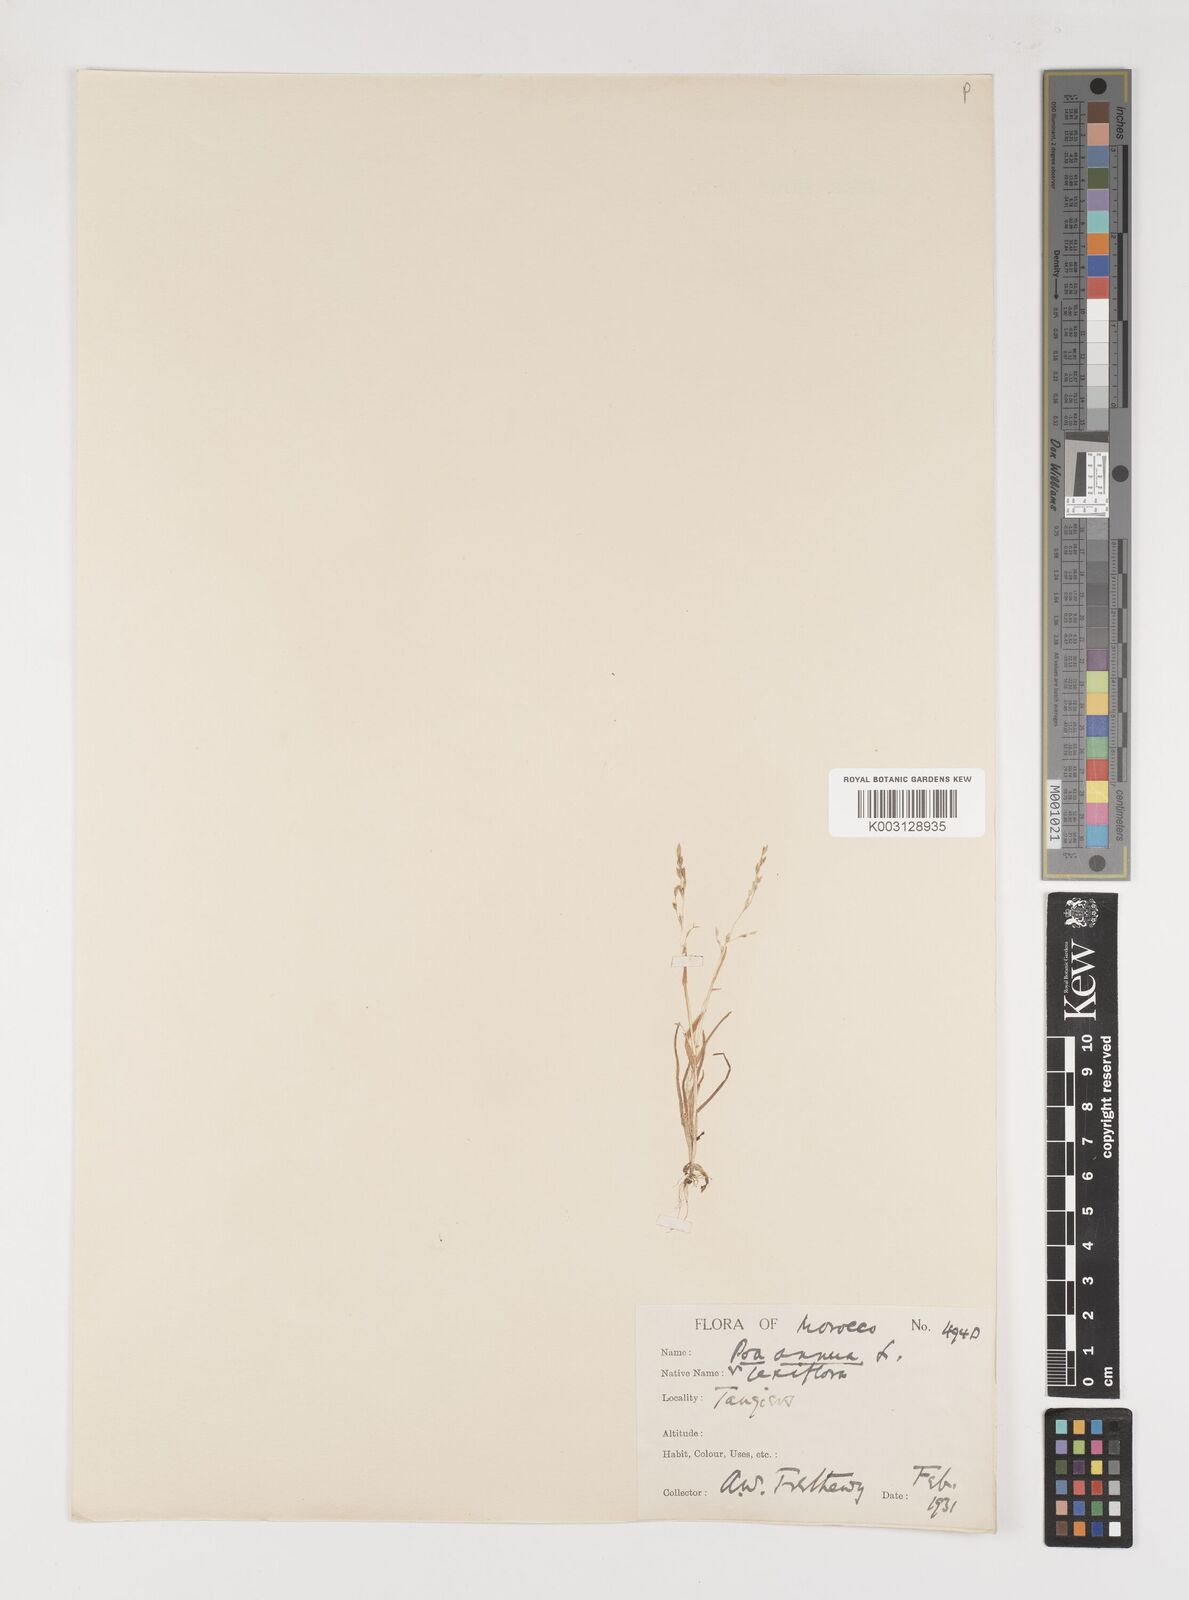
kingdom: Plantae
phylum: Tracheophyta
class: Liliopsida
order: Poales
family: Poaceae
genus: Poa
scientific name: Poa infirma
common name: Weak bluegrass
